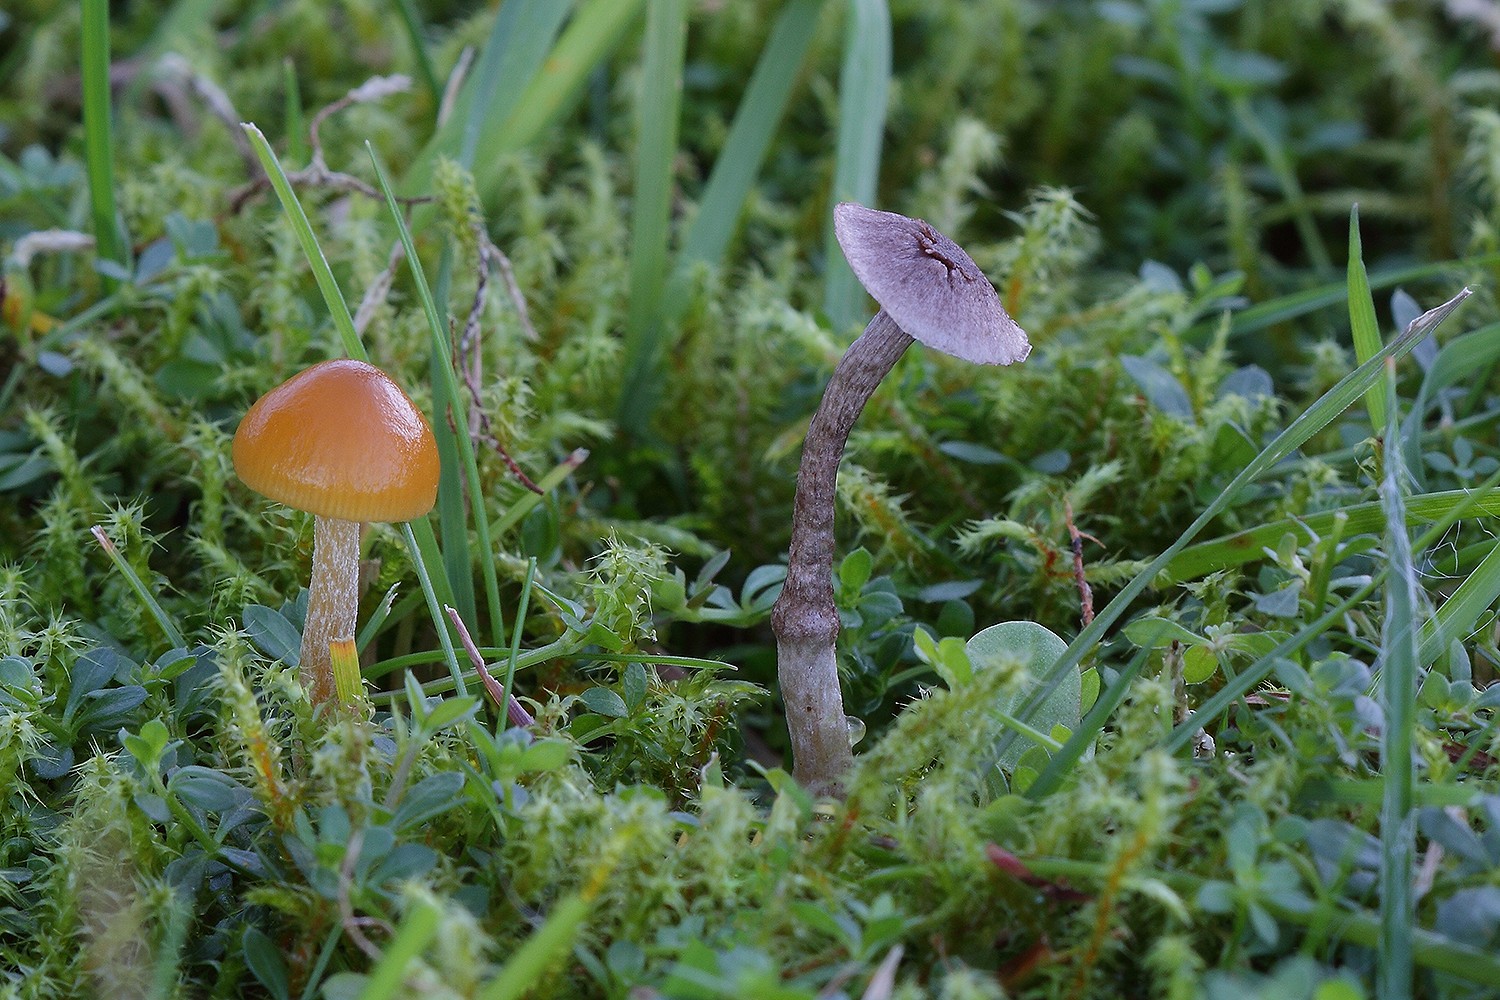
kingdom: Fungi
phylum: Basidiomycota
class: Agaricomycetes
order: Agaricales
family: Squamanitaceae
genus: Dissoderma
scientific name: Dissoderma galerinicola
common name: hjelmhat-knoldfod
